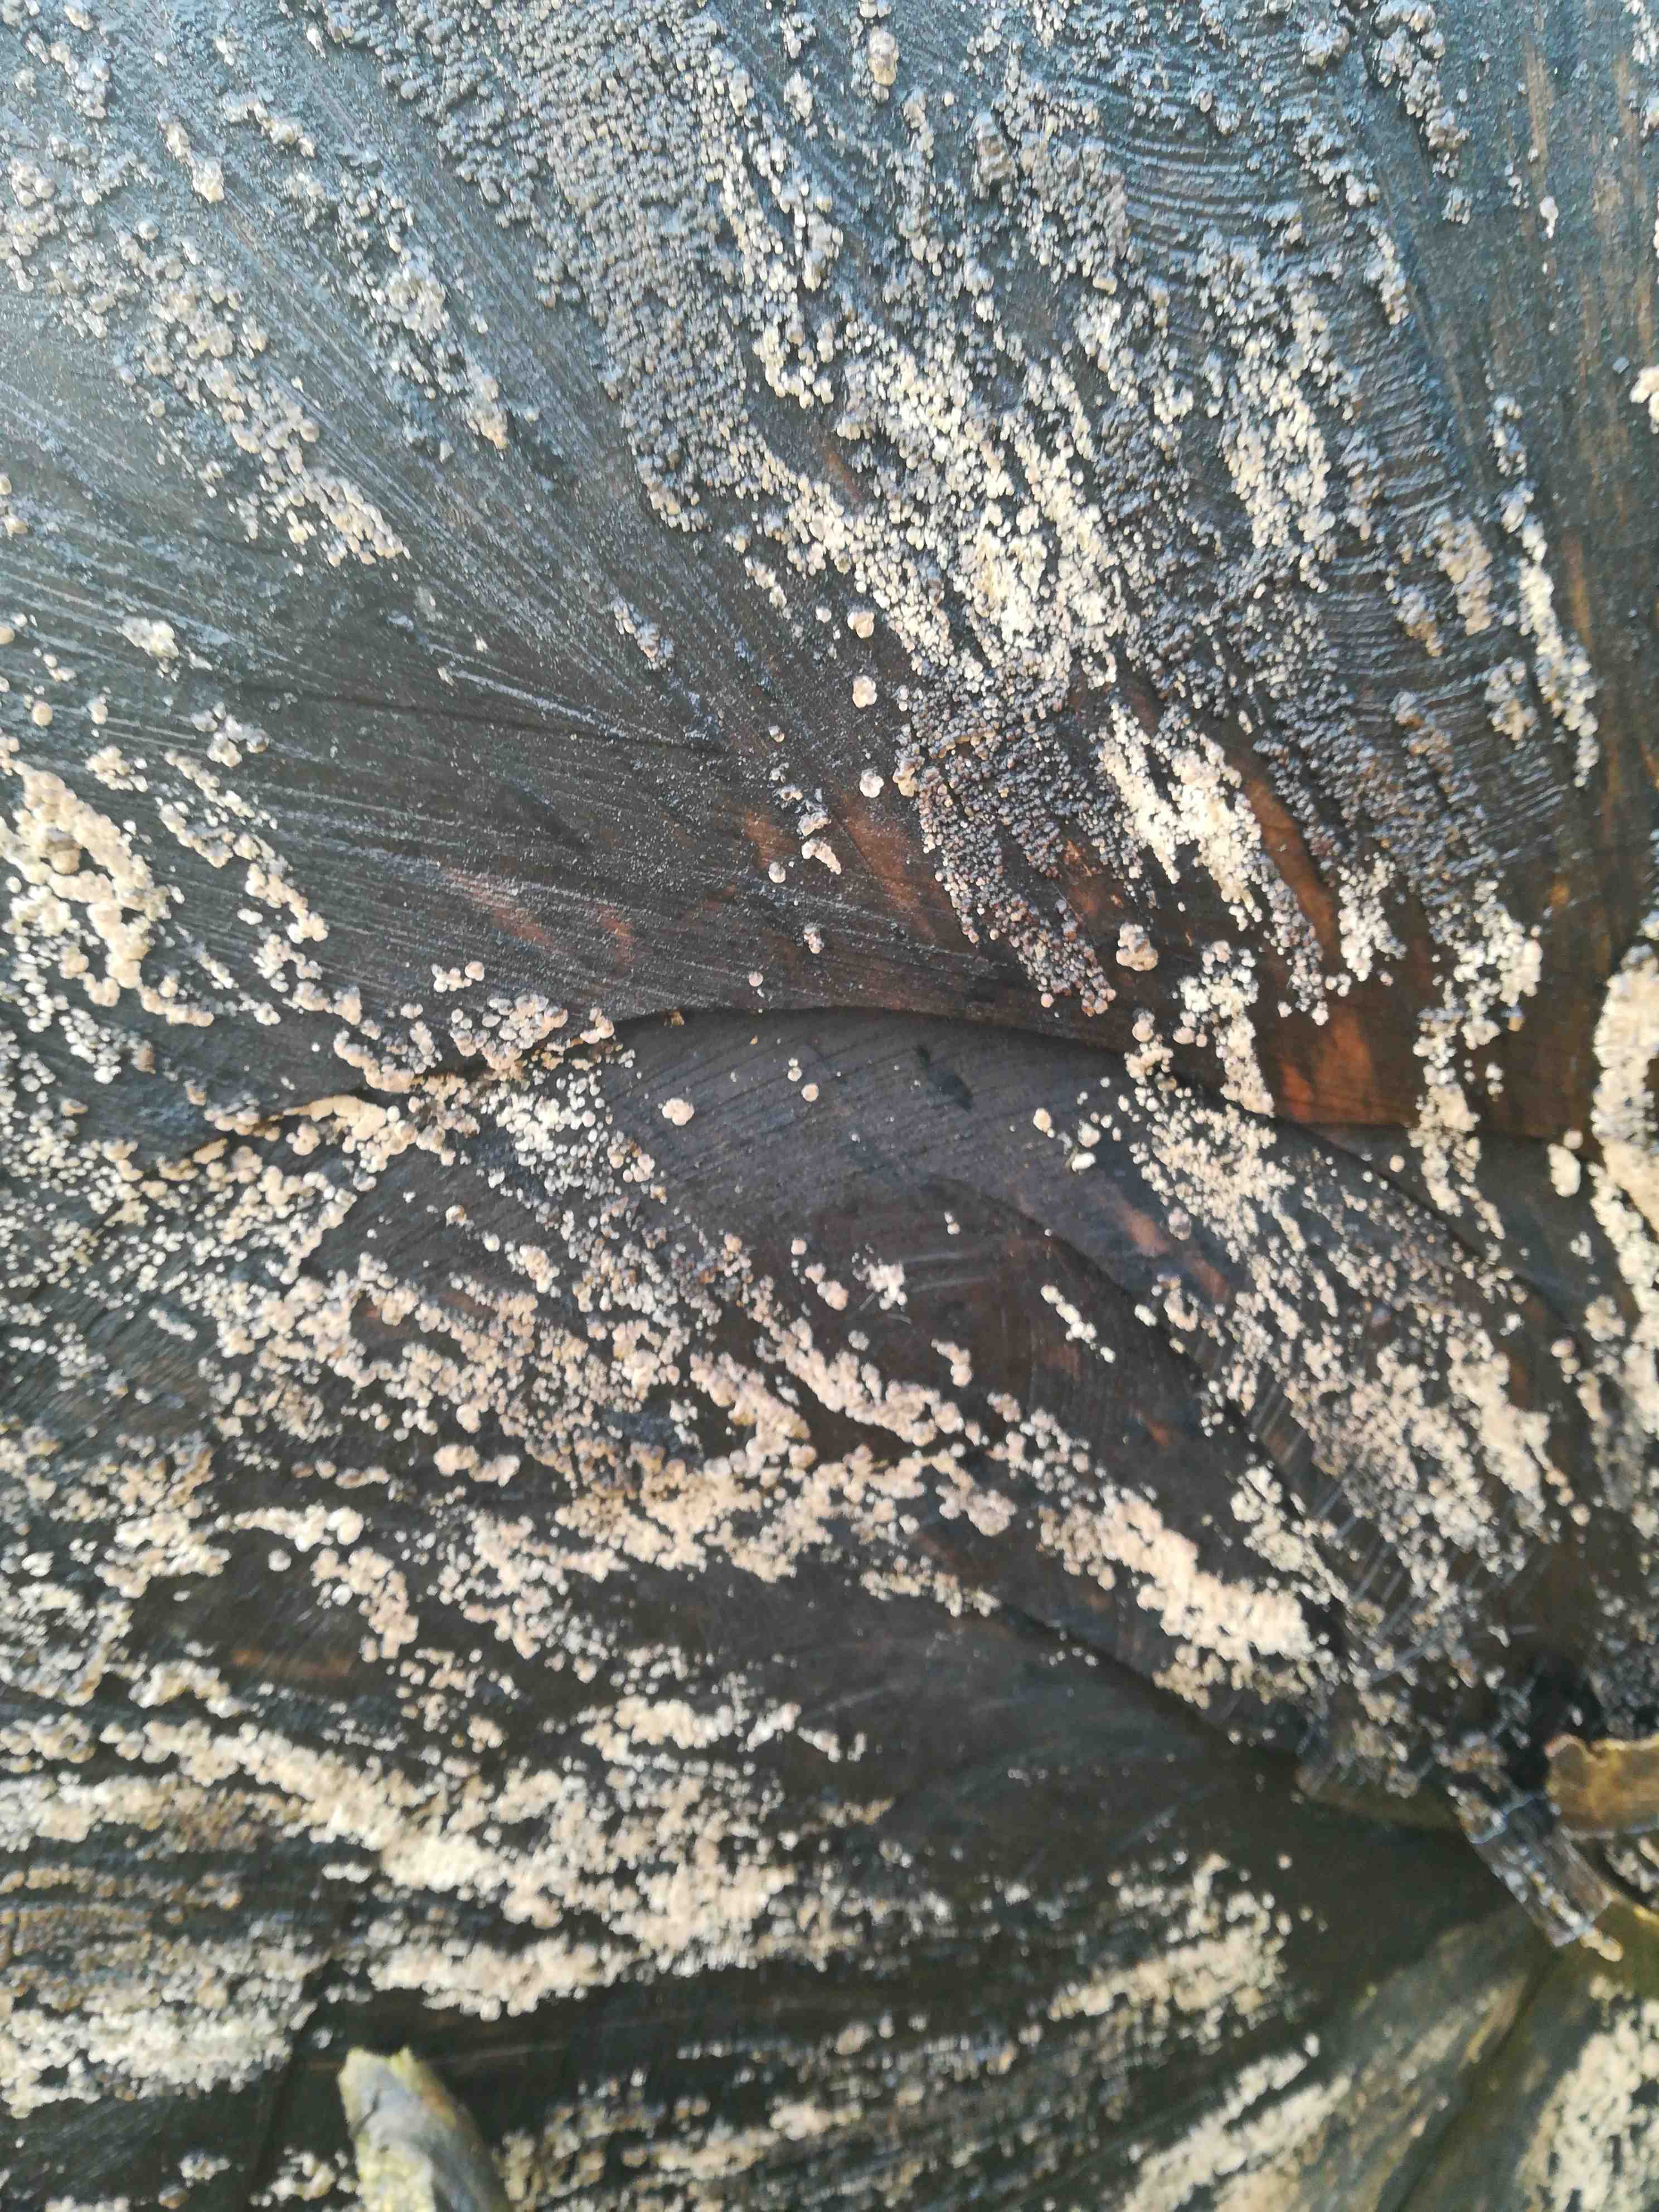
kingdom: Fungi
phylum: Ascomycota
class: Sordariomycetes
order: Xylariales
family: Hypoxylaceae
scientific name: Hypoxylaceae
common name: kulbærfamilien
